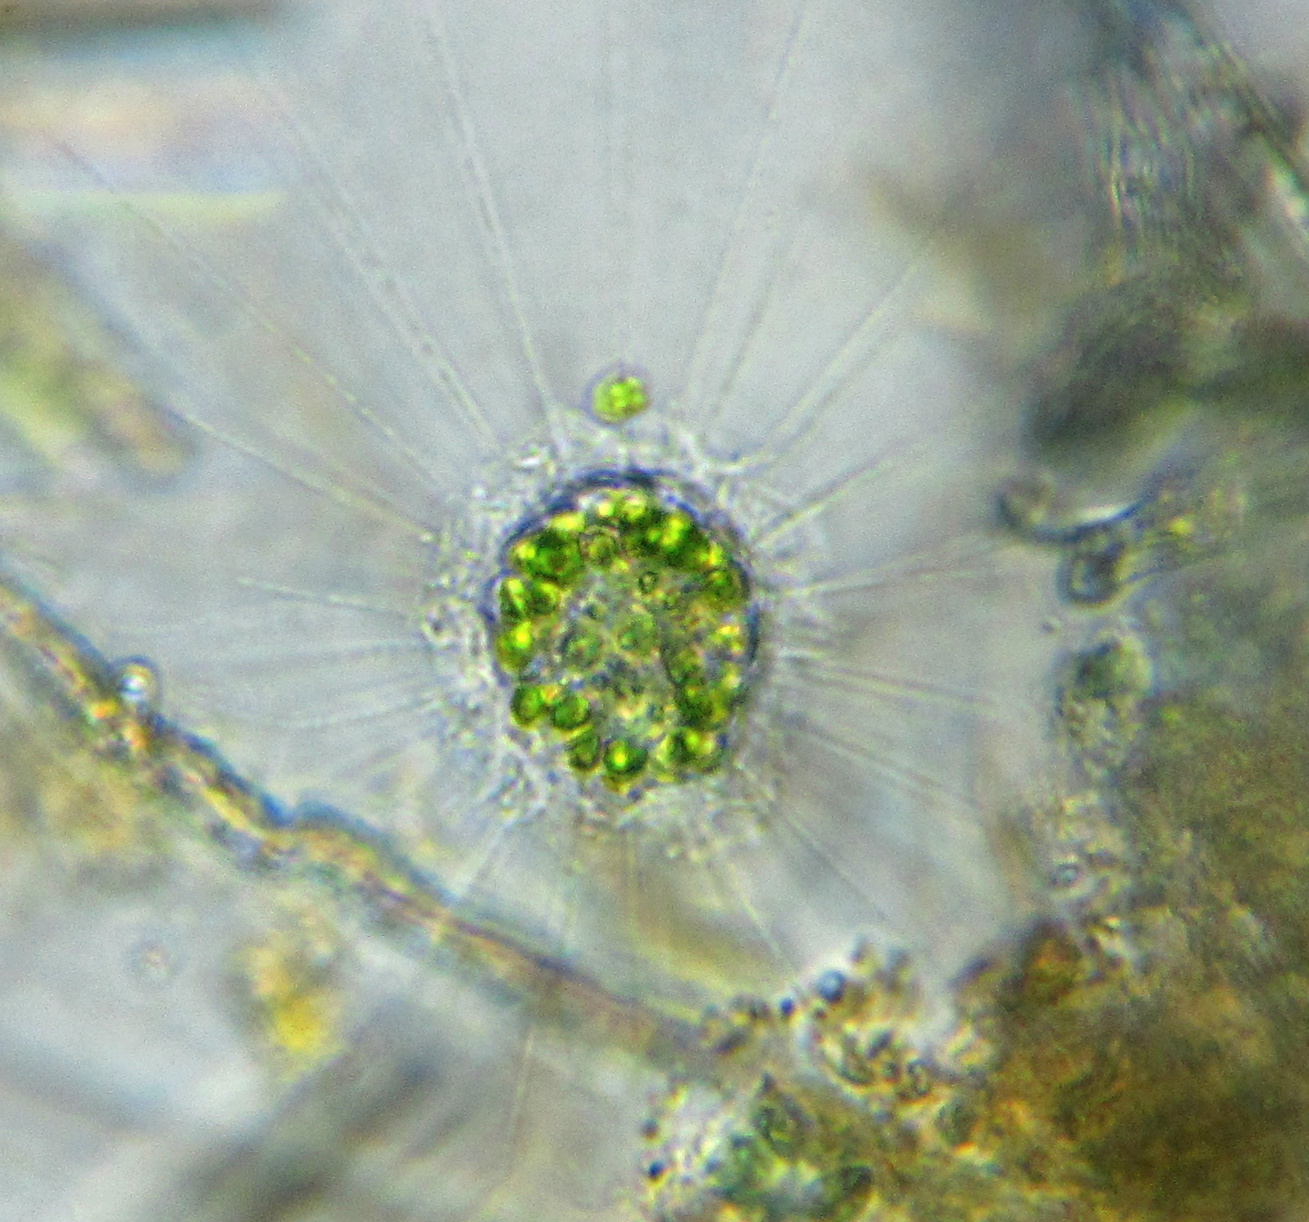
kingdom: Animalia
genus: Raphidiophrys
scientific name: Raphidiophrys
